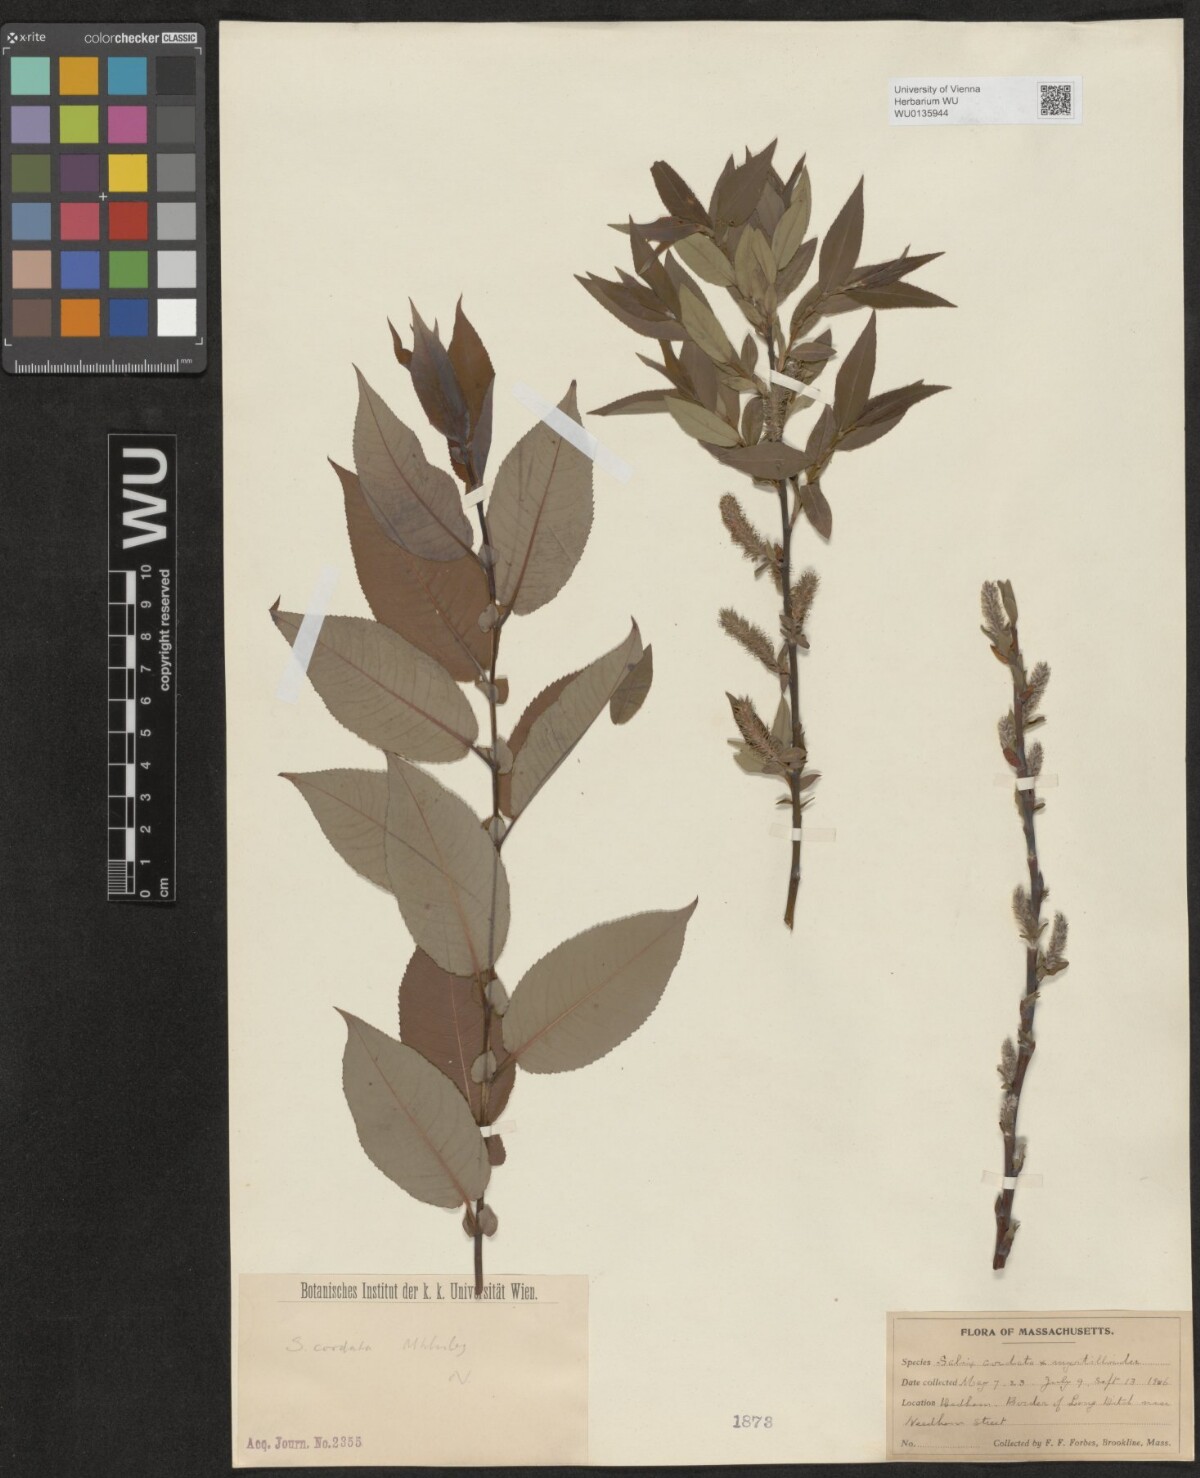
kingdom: Plantae
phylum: Tracheophyta
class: Magnoliopsida
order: Malpighiales
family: Salicaceae
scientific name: Salicaceae
